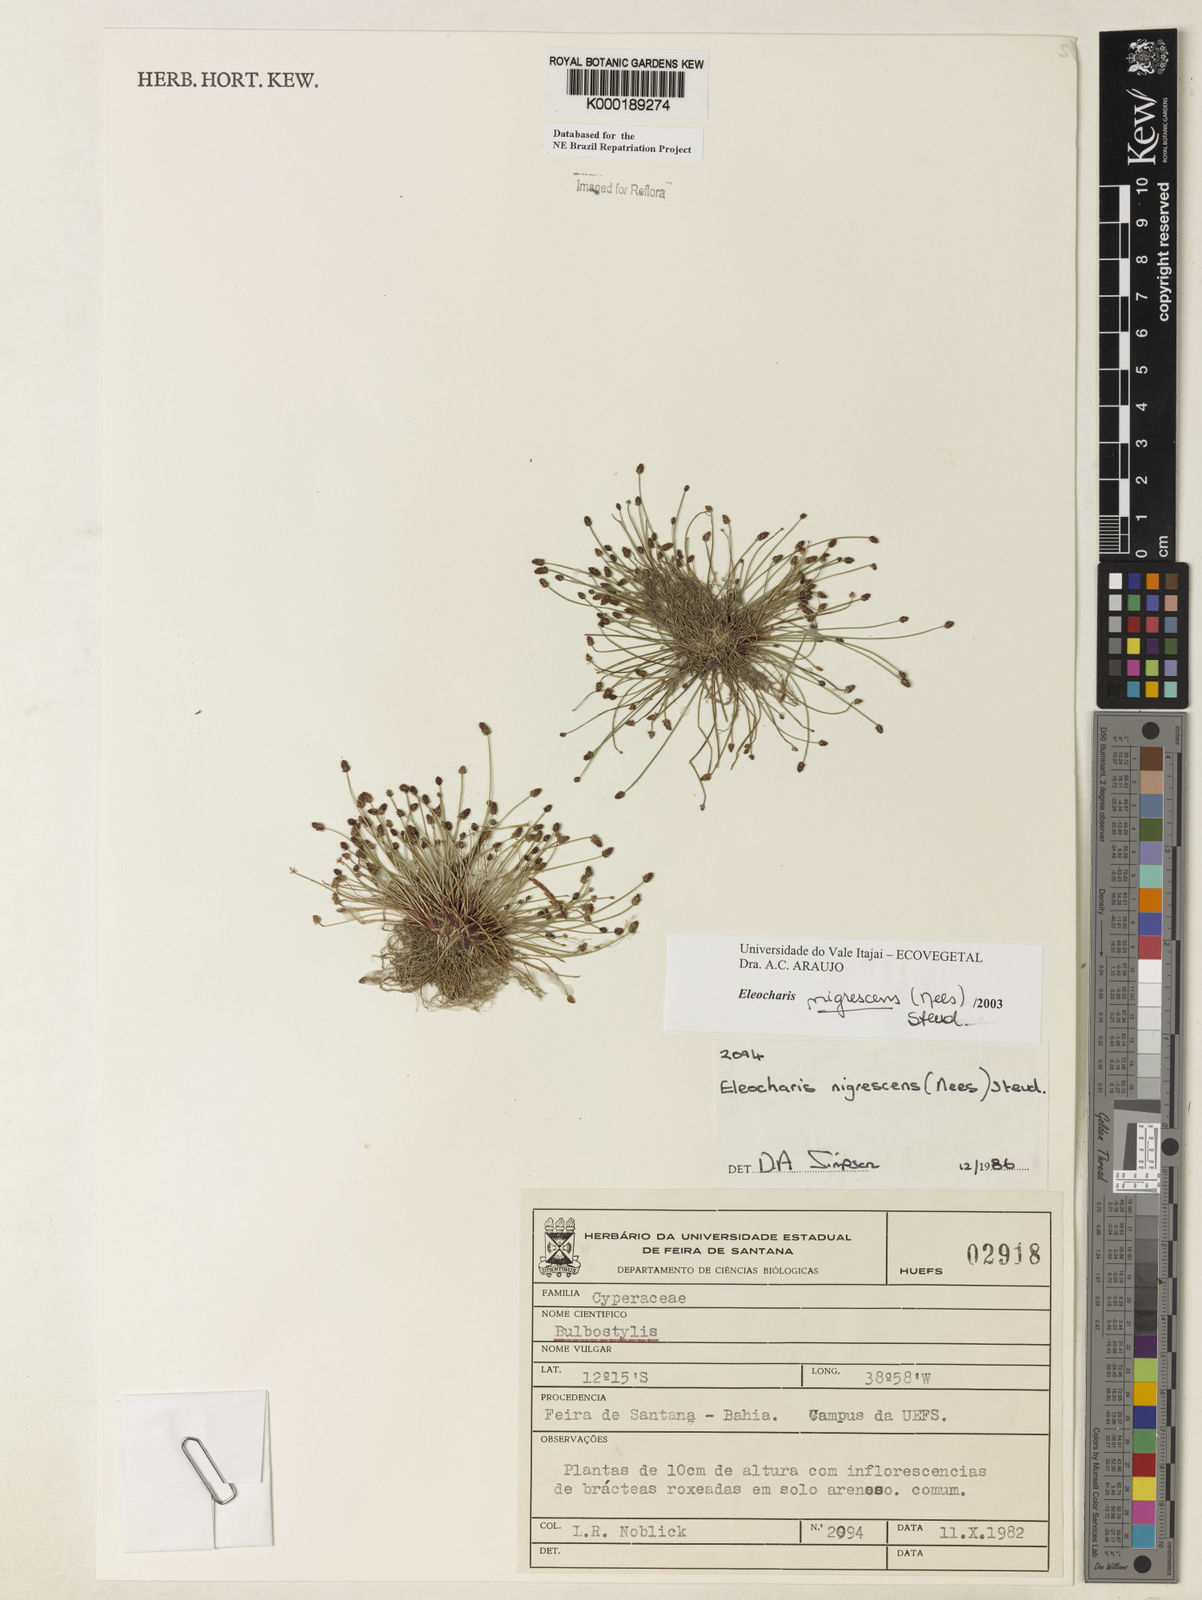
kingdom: Plantae
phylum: Tracheophyta
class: Liliopsida
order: Poales
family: Cyperaceae
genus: Eleocharis
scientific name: Eleocharis
